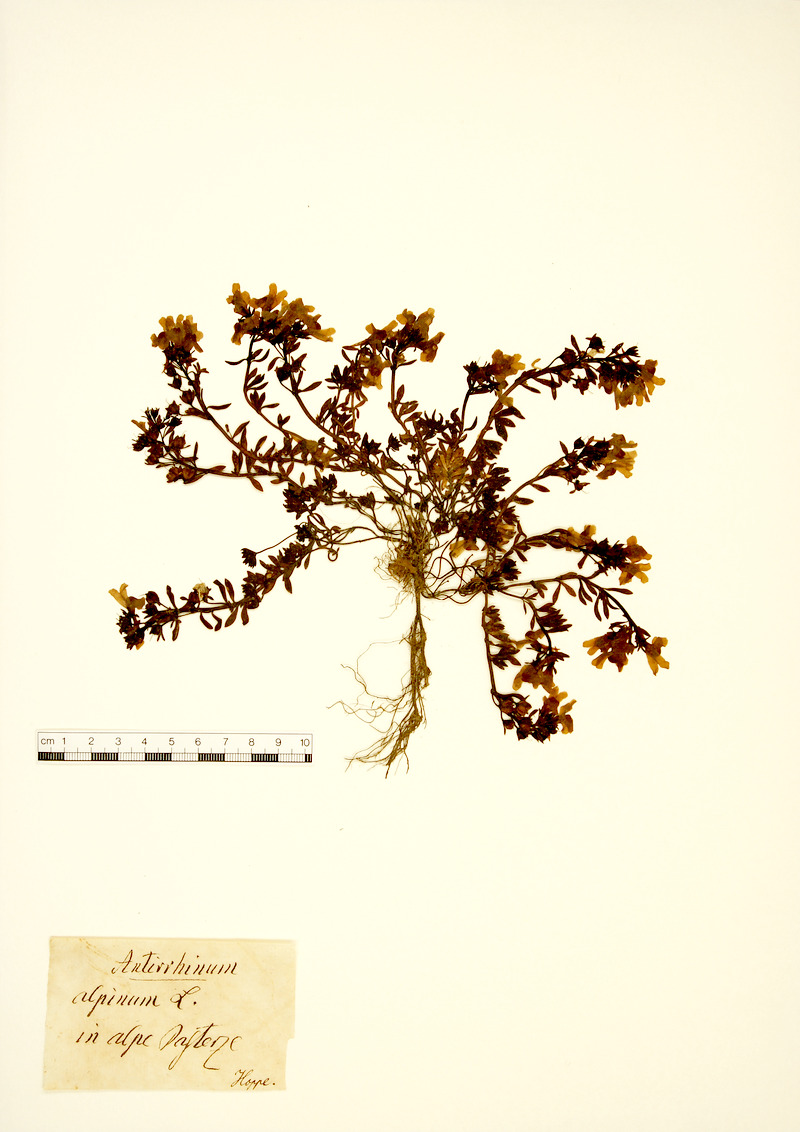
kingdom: Plantae
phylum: Tracheophyta
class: Magnoliopsida
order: Lamiales
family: Plantaginaceae
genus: Linaria
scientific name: Linaria alpina
